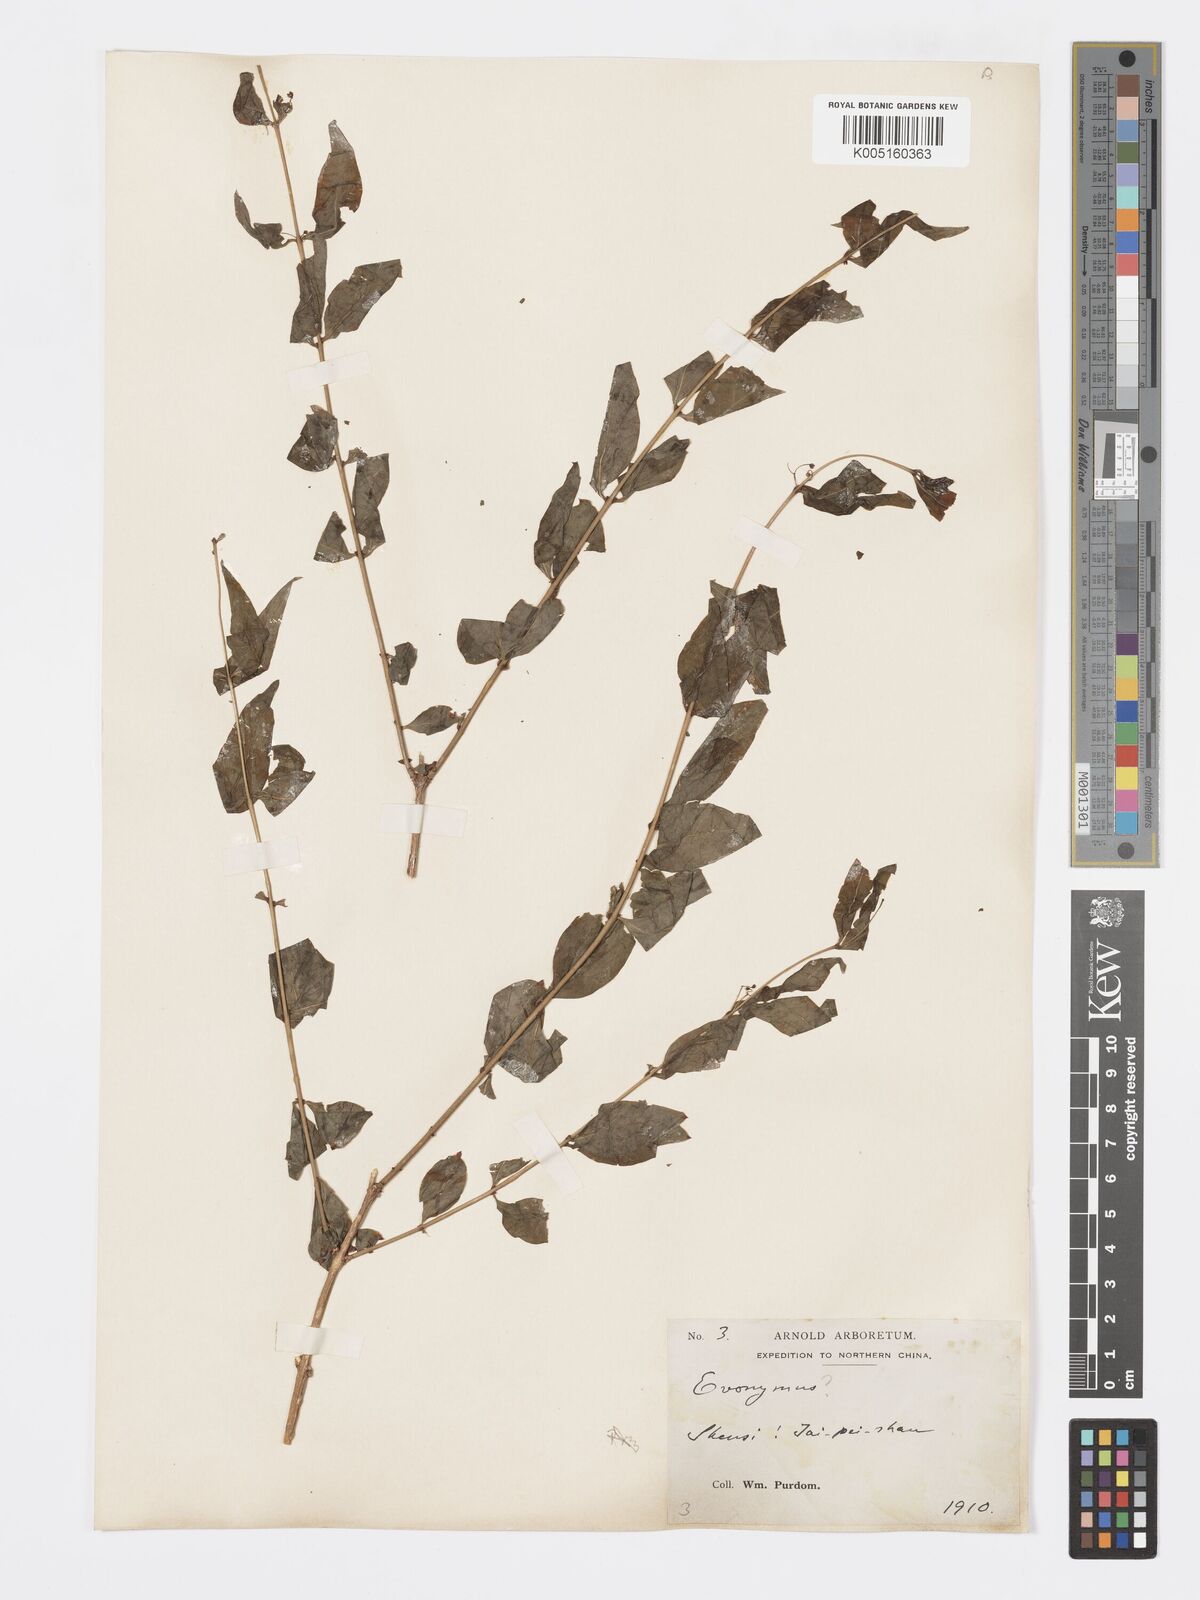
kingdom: Plantae
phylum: Tracheophyta
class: Magnoliopsida
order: Celastrales
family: Celastraceae
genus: Euonymus
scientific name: Euonymus
